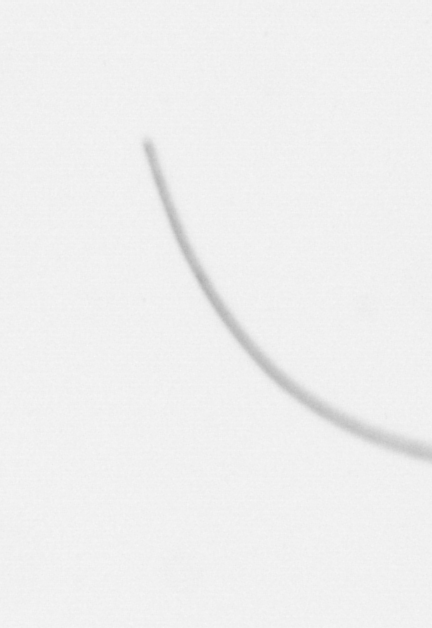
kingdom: Chromista
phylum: Ochrophyta
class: Bacillariophyceae
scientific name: Bacillariophyceae
